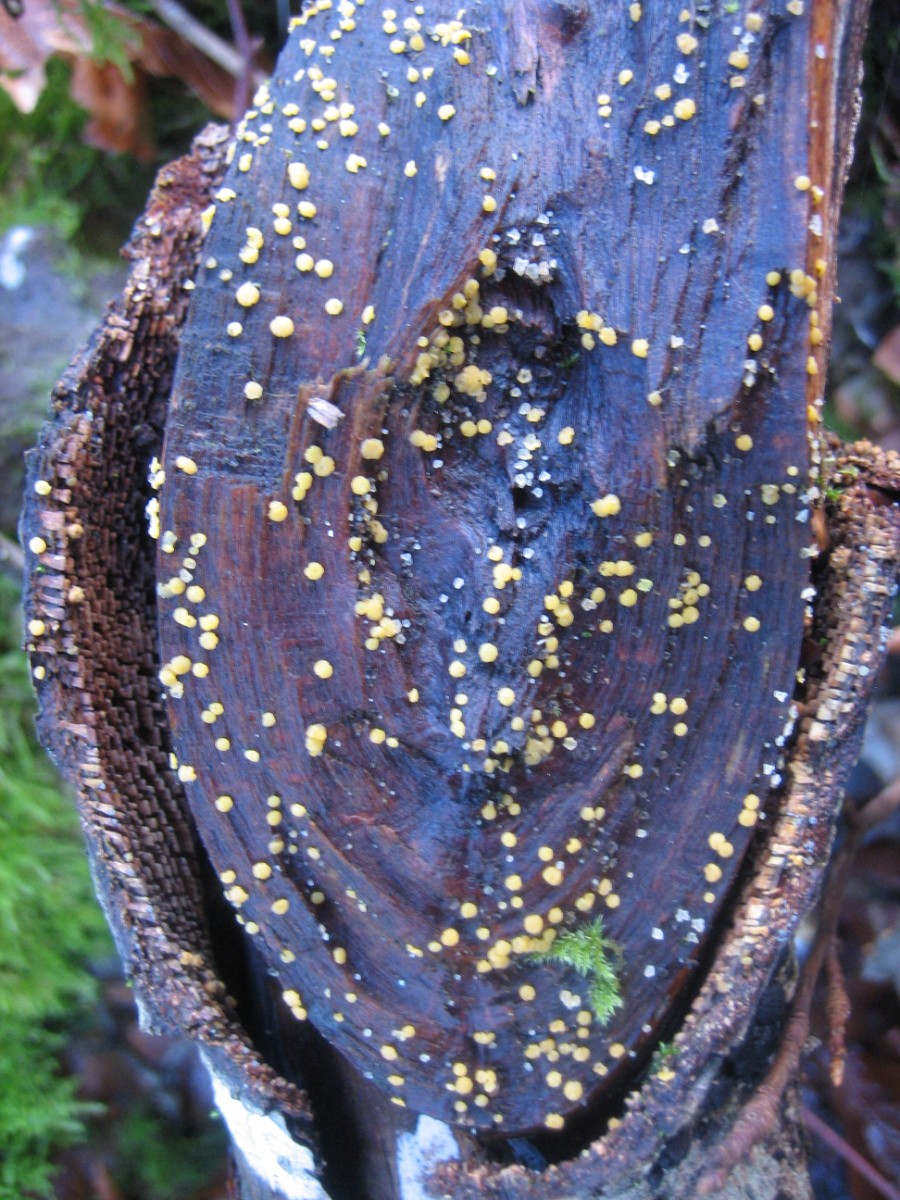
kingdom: Fungi
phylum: Ascomycota
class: Leotiomycetes
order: Helotiales
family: Pezizellaceae
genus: Calycina
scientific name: Calycina citrina
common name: almindelig gulskive
